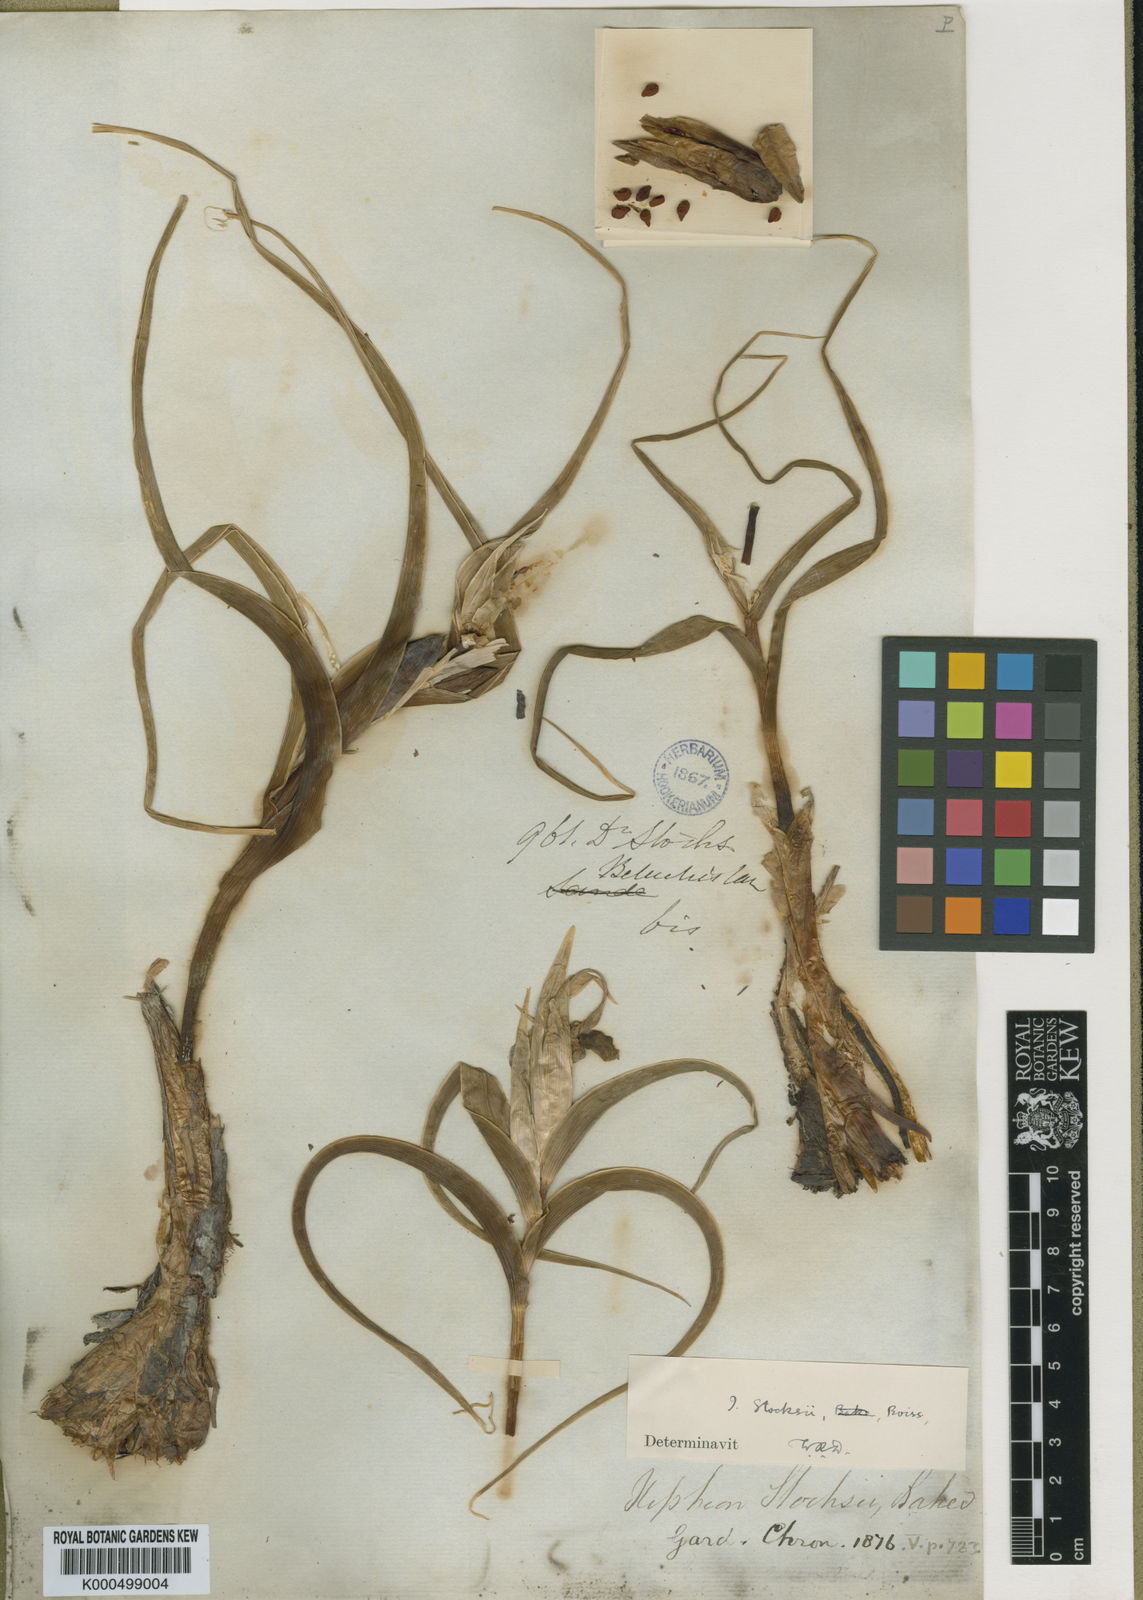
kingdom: Plantae
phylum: Tracheophyta
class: Liliopsida
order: Asparagales
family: Iridaceae
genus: Iris
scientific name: Iris stocksii
